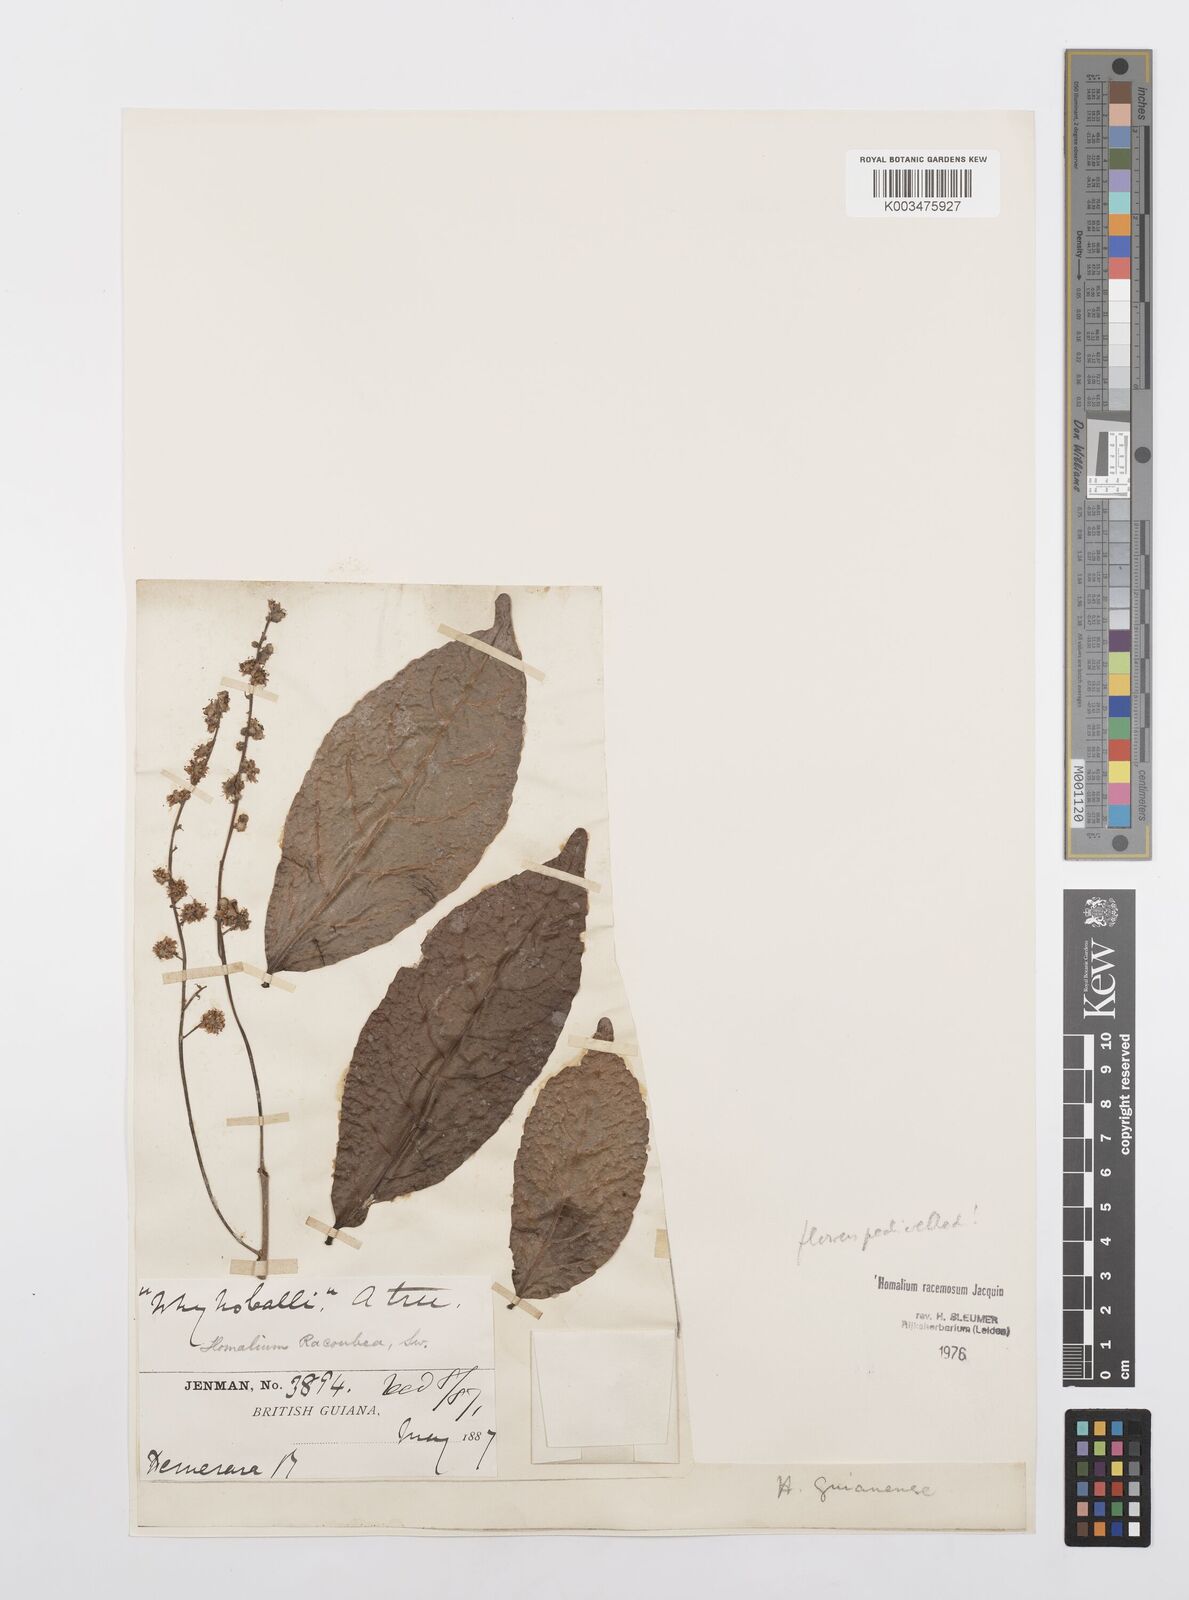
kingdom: Plantae
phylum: Tracheophyta
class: Magnoliopsida
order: Malpighiales
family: Salicaceae
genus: Homalium
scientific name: Homalium racemosum
